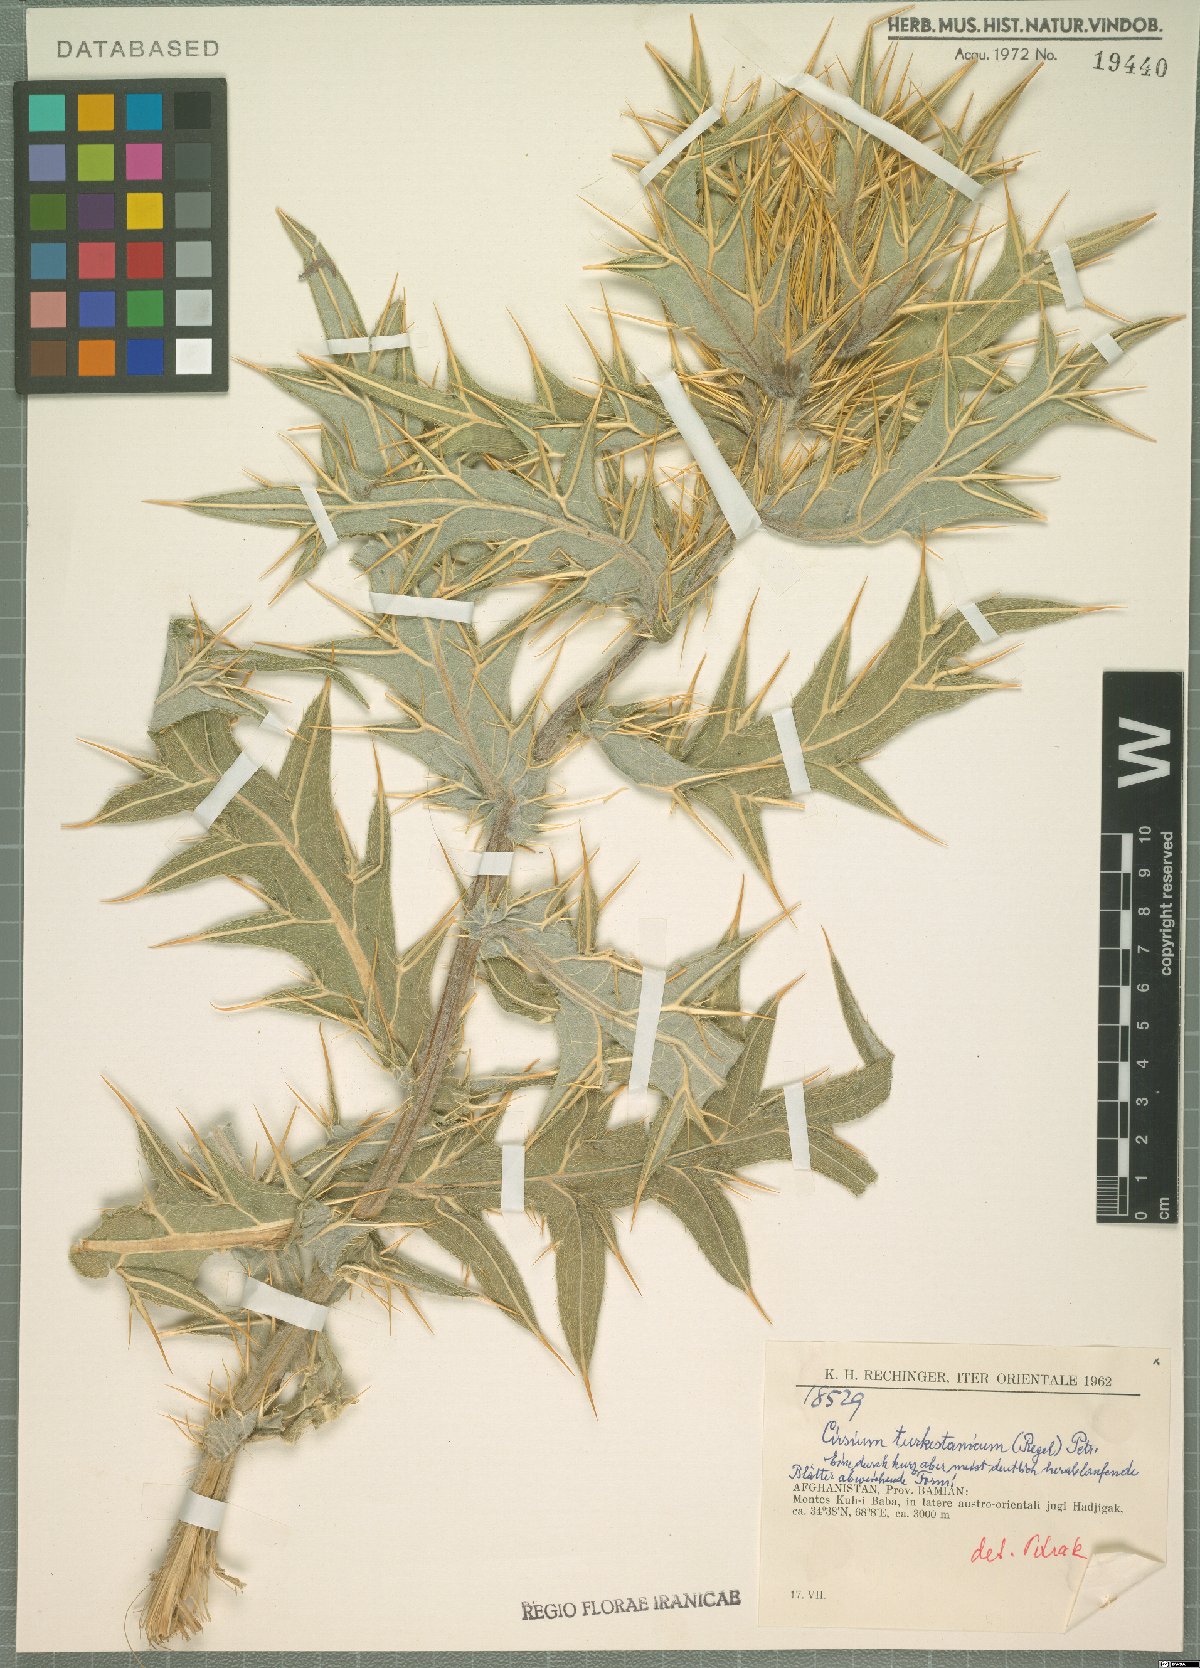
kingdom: Plantae
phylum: Tracheophyta
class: Magnoliopsida
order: Asterales
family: Asteraceae
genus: Lophiolepis
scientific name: Lophiolepis turkestanica
